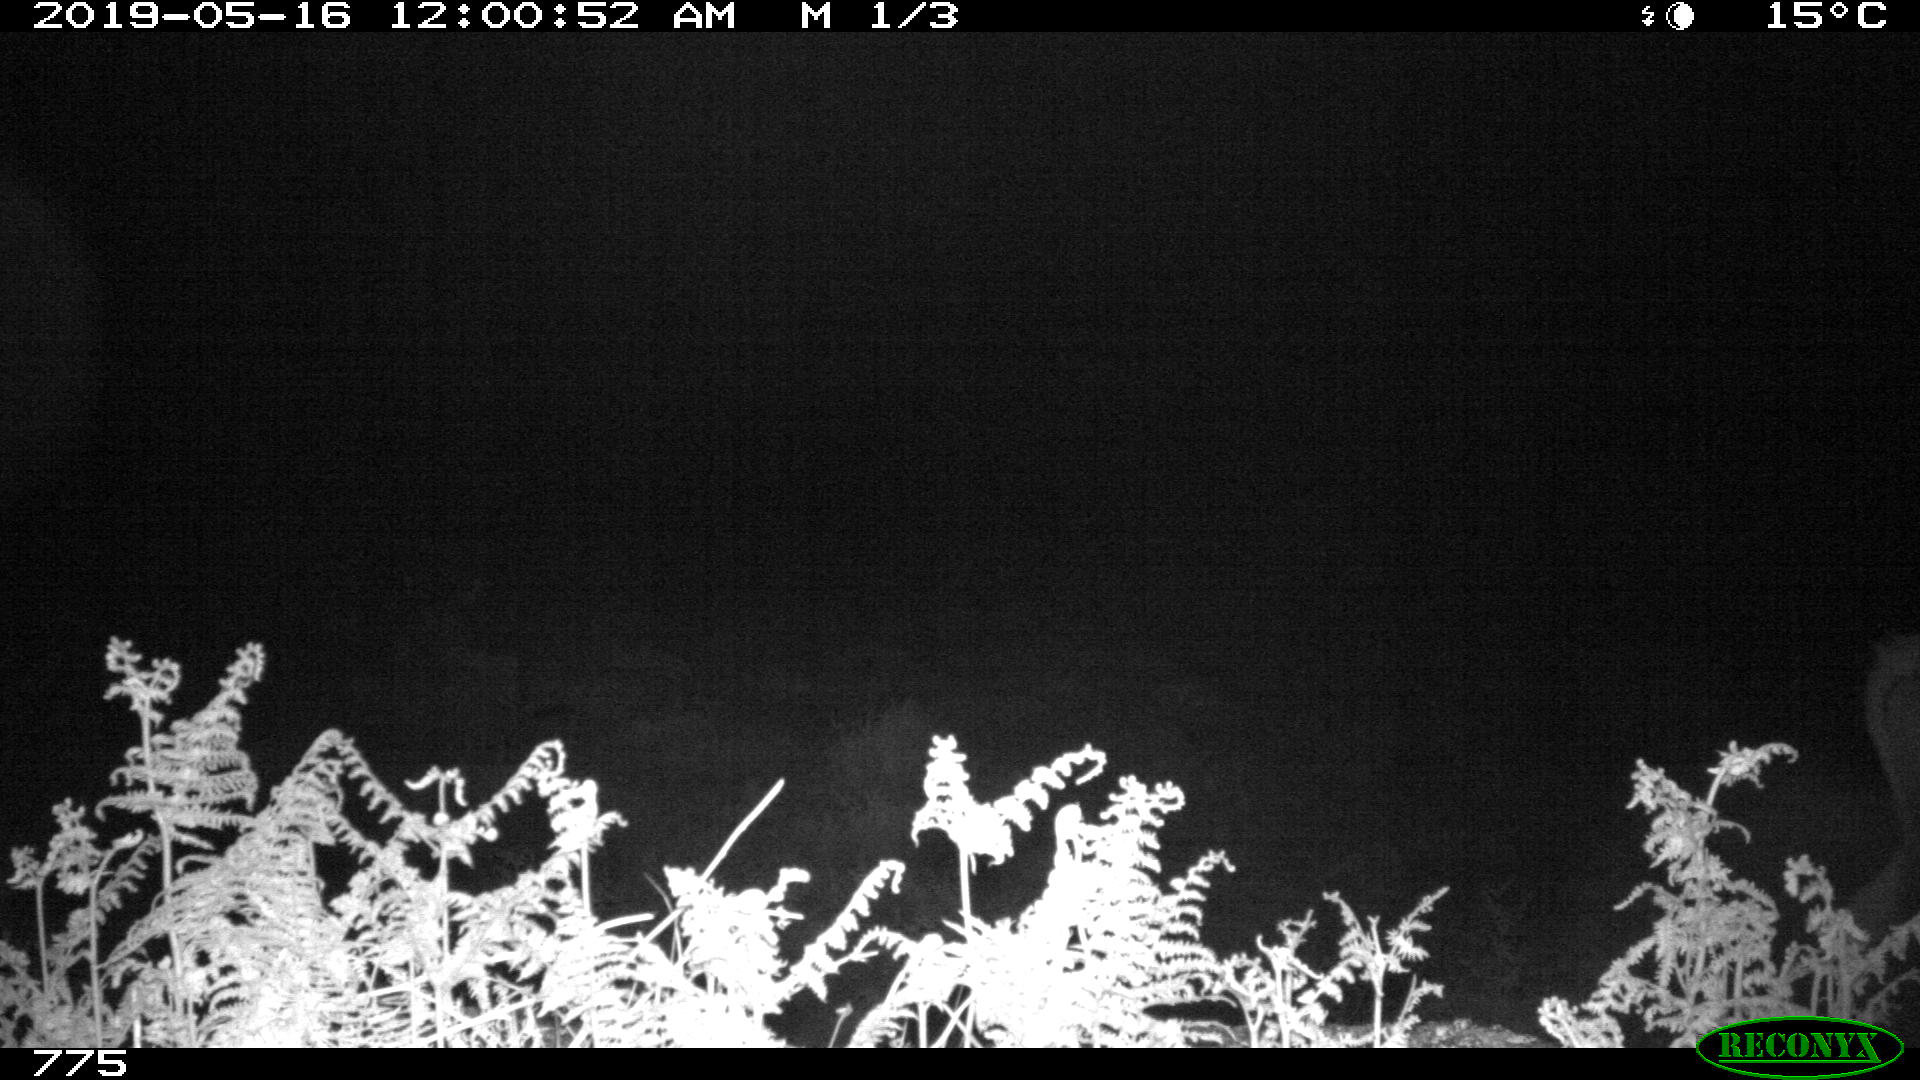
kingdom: Animalia
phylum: Chordata
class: Mammalia
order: Artiodactyla
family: Bovidae
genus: Bos
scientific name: Bos taurus
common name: Domesticated cattle
